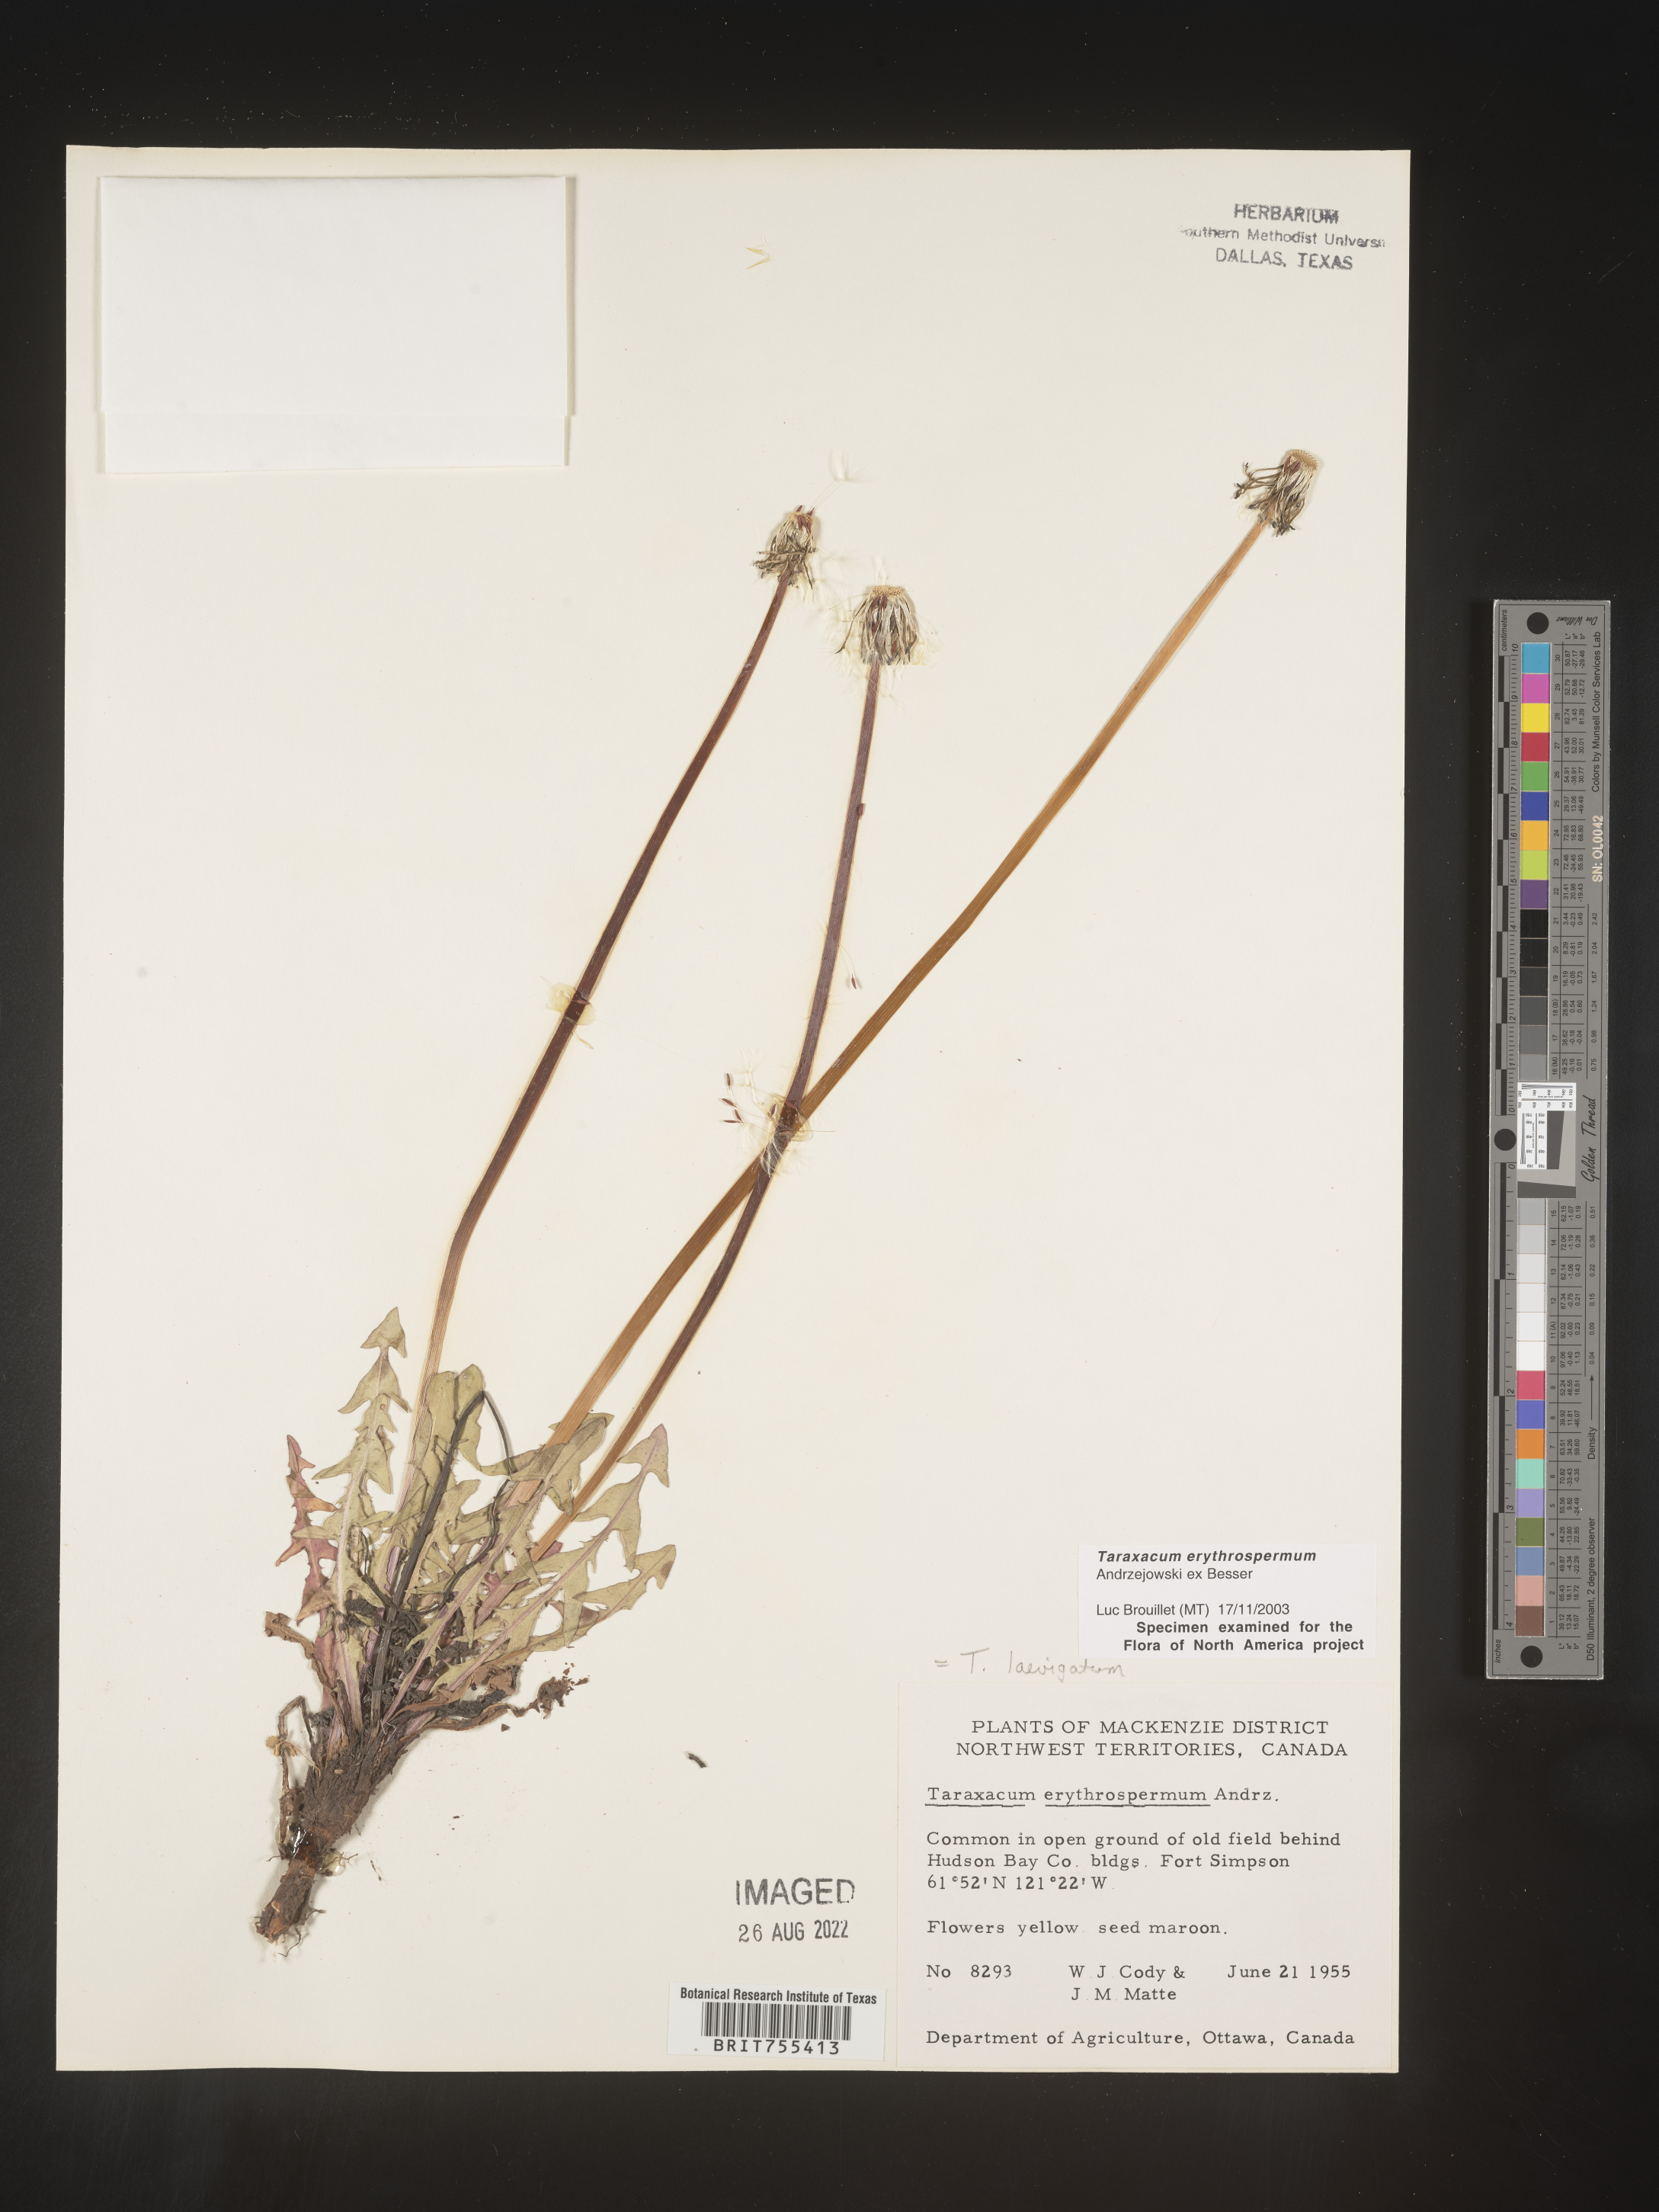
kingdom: Plantae
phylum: Tracheophyta
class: Magnoliopsida
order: Asterales
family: Asteraceae
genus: Taraxacum
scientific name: Taraxacum erythrospermum
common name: Rock dandelion
